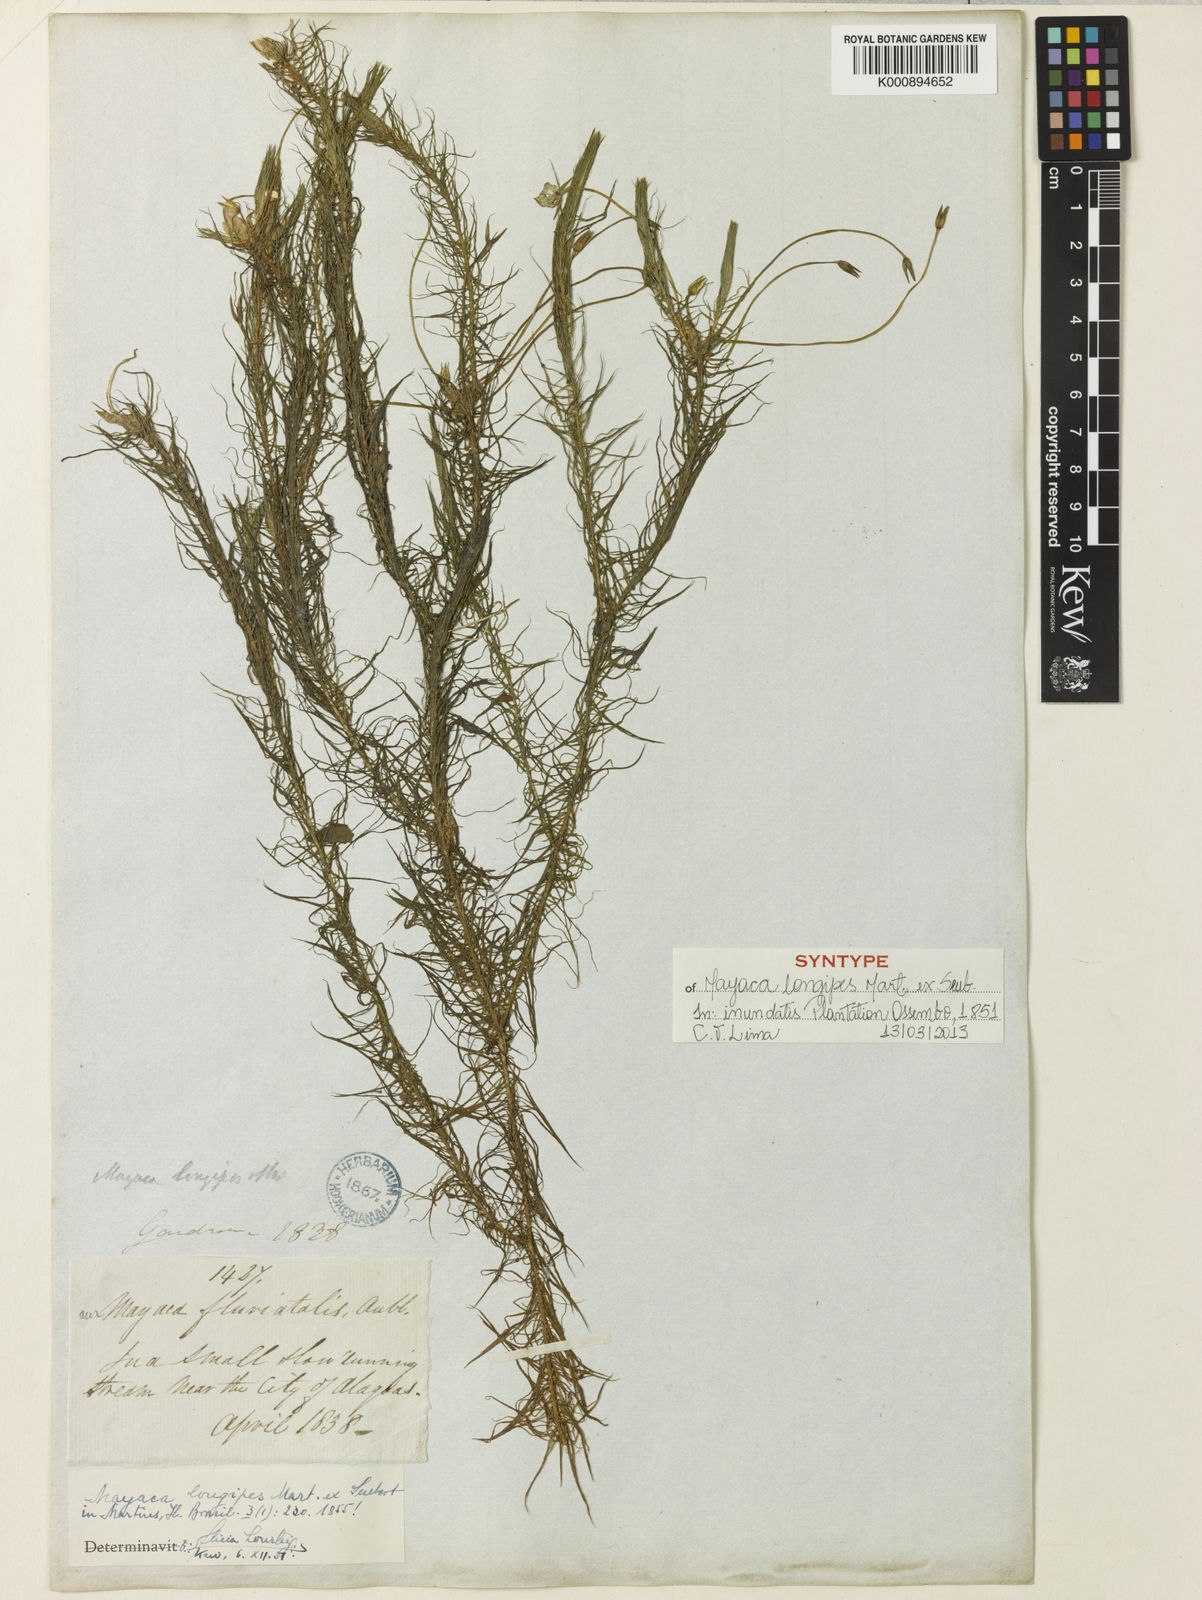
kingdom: Plantae
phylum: Tracheophyta
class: Liliopsida
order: Poales
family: Mayacaceae
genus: Mayaca
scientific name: Mayaca longipes
